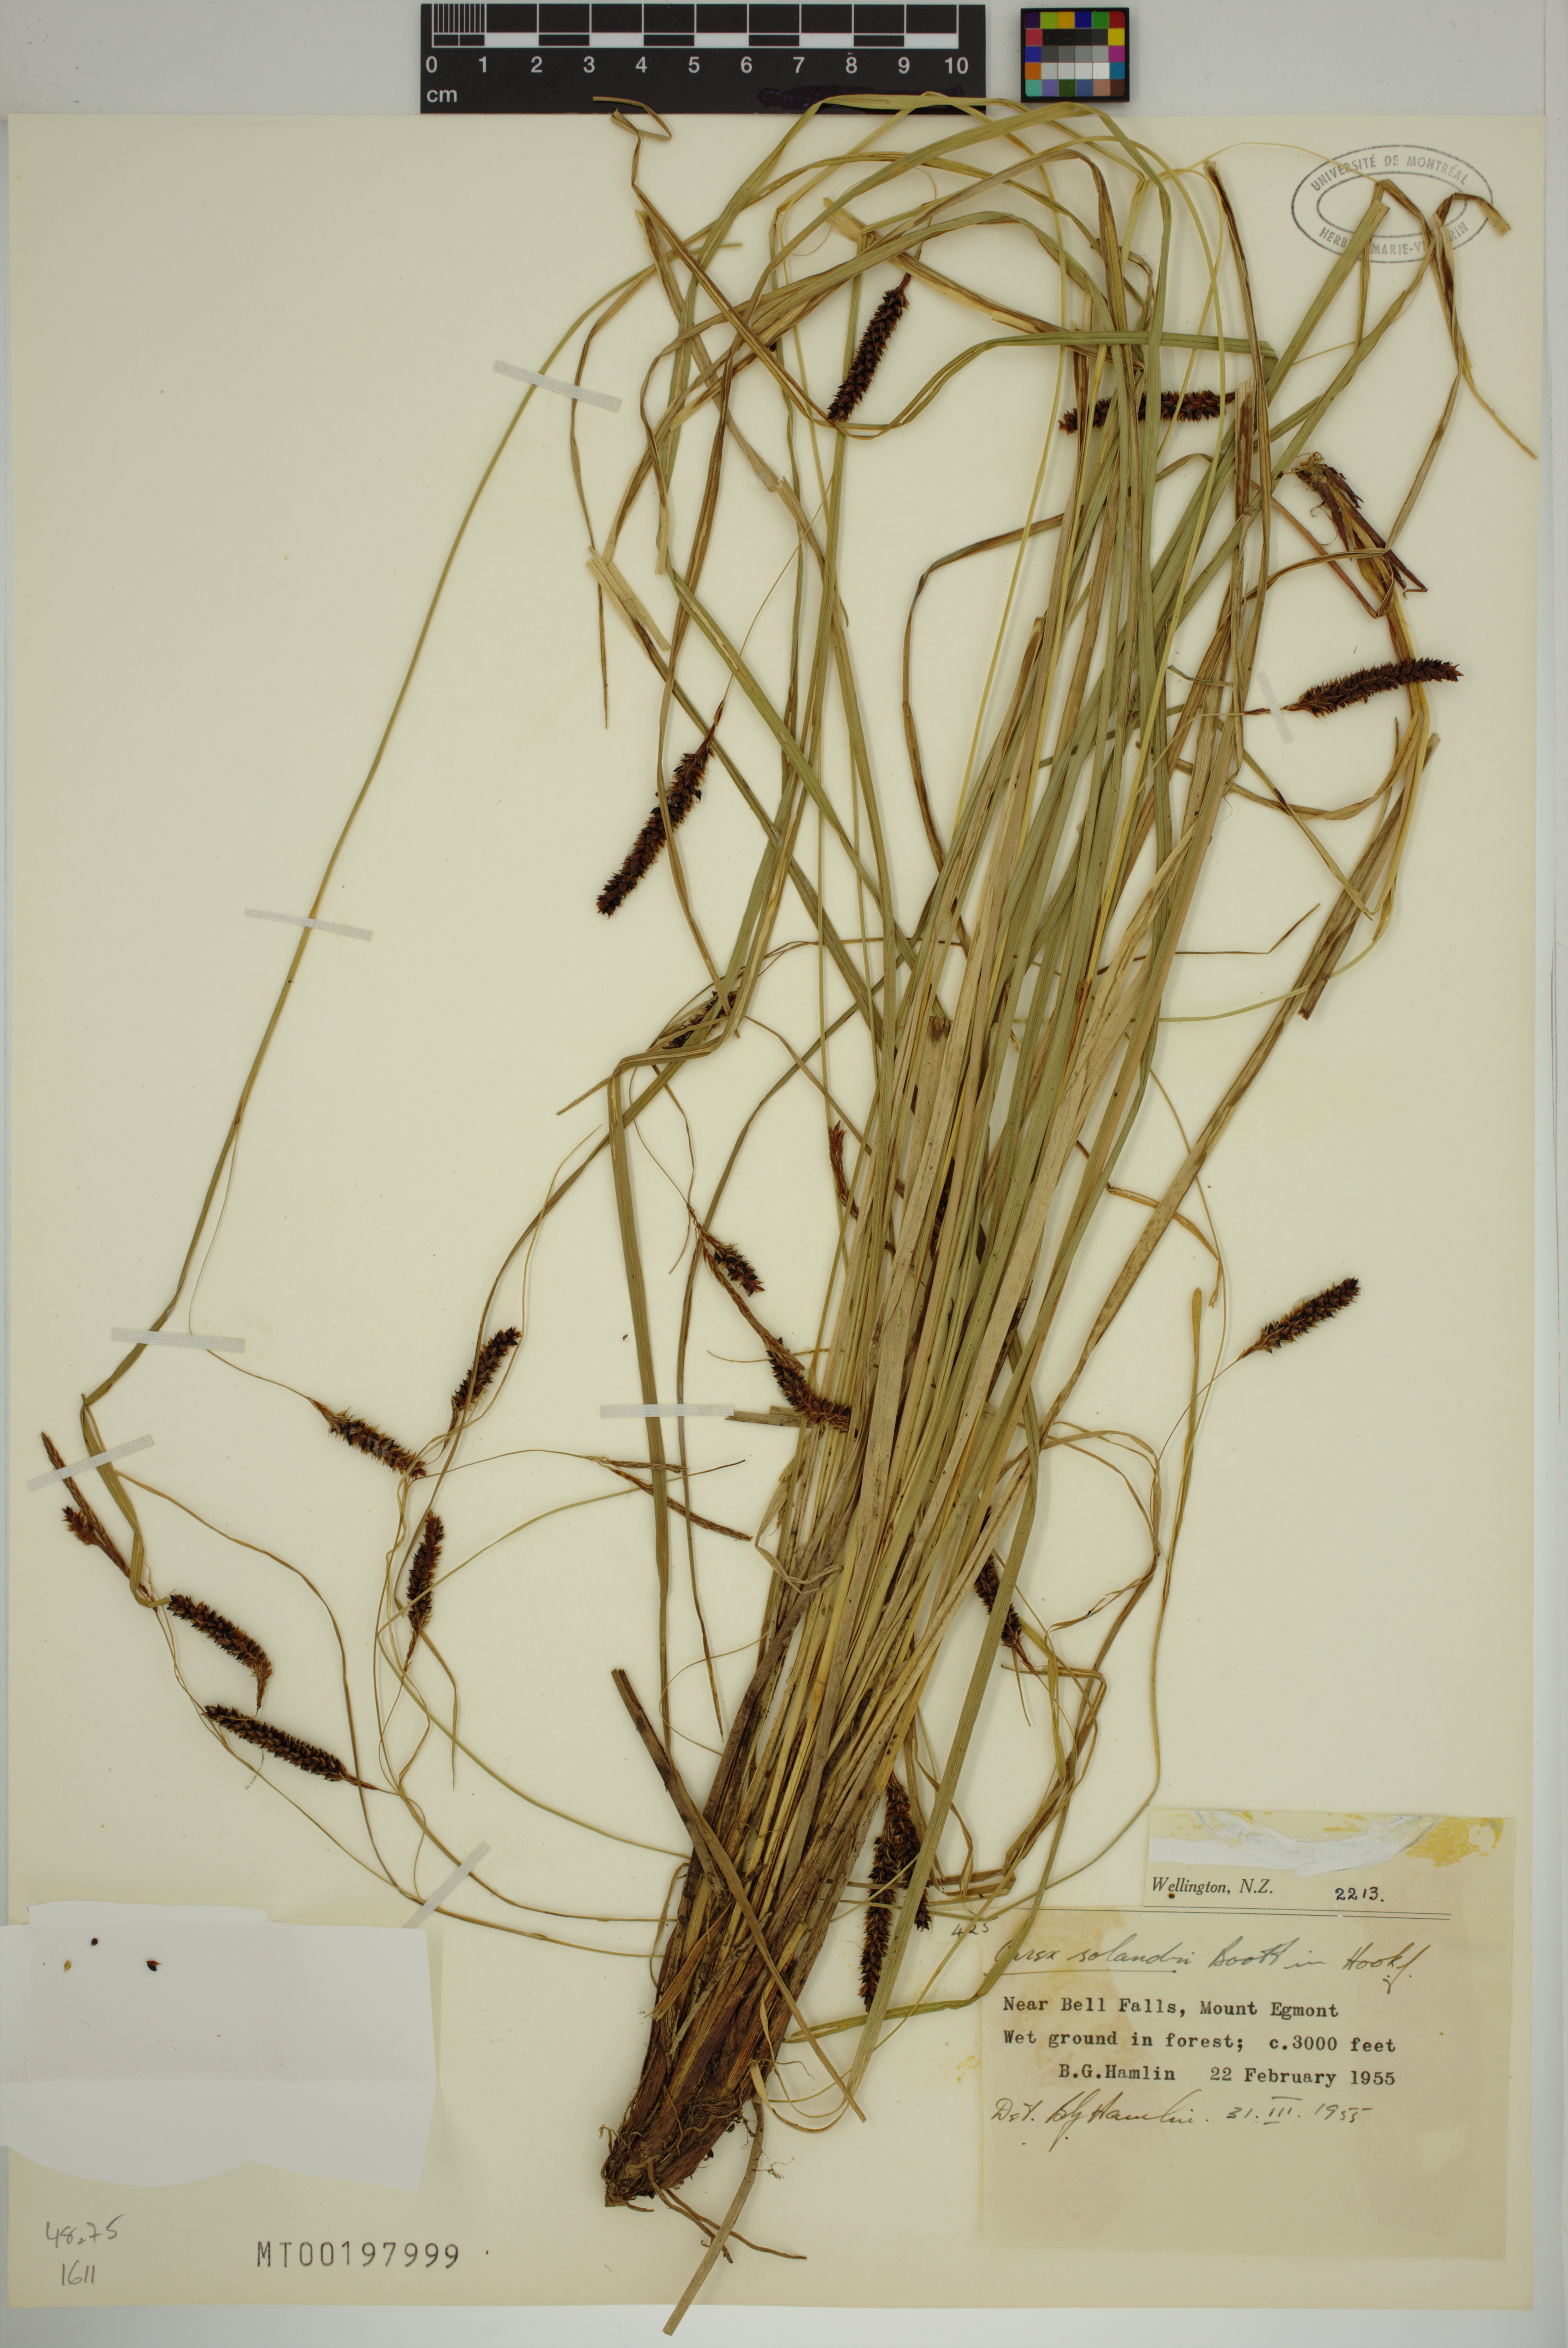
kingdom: Plantae
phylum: Tracheophyta
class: Liliopsida
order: Poales
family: Cyperaceae
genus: Carex
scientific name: Carex solandri
